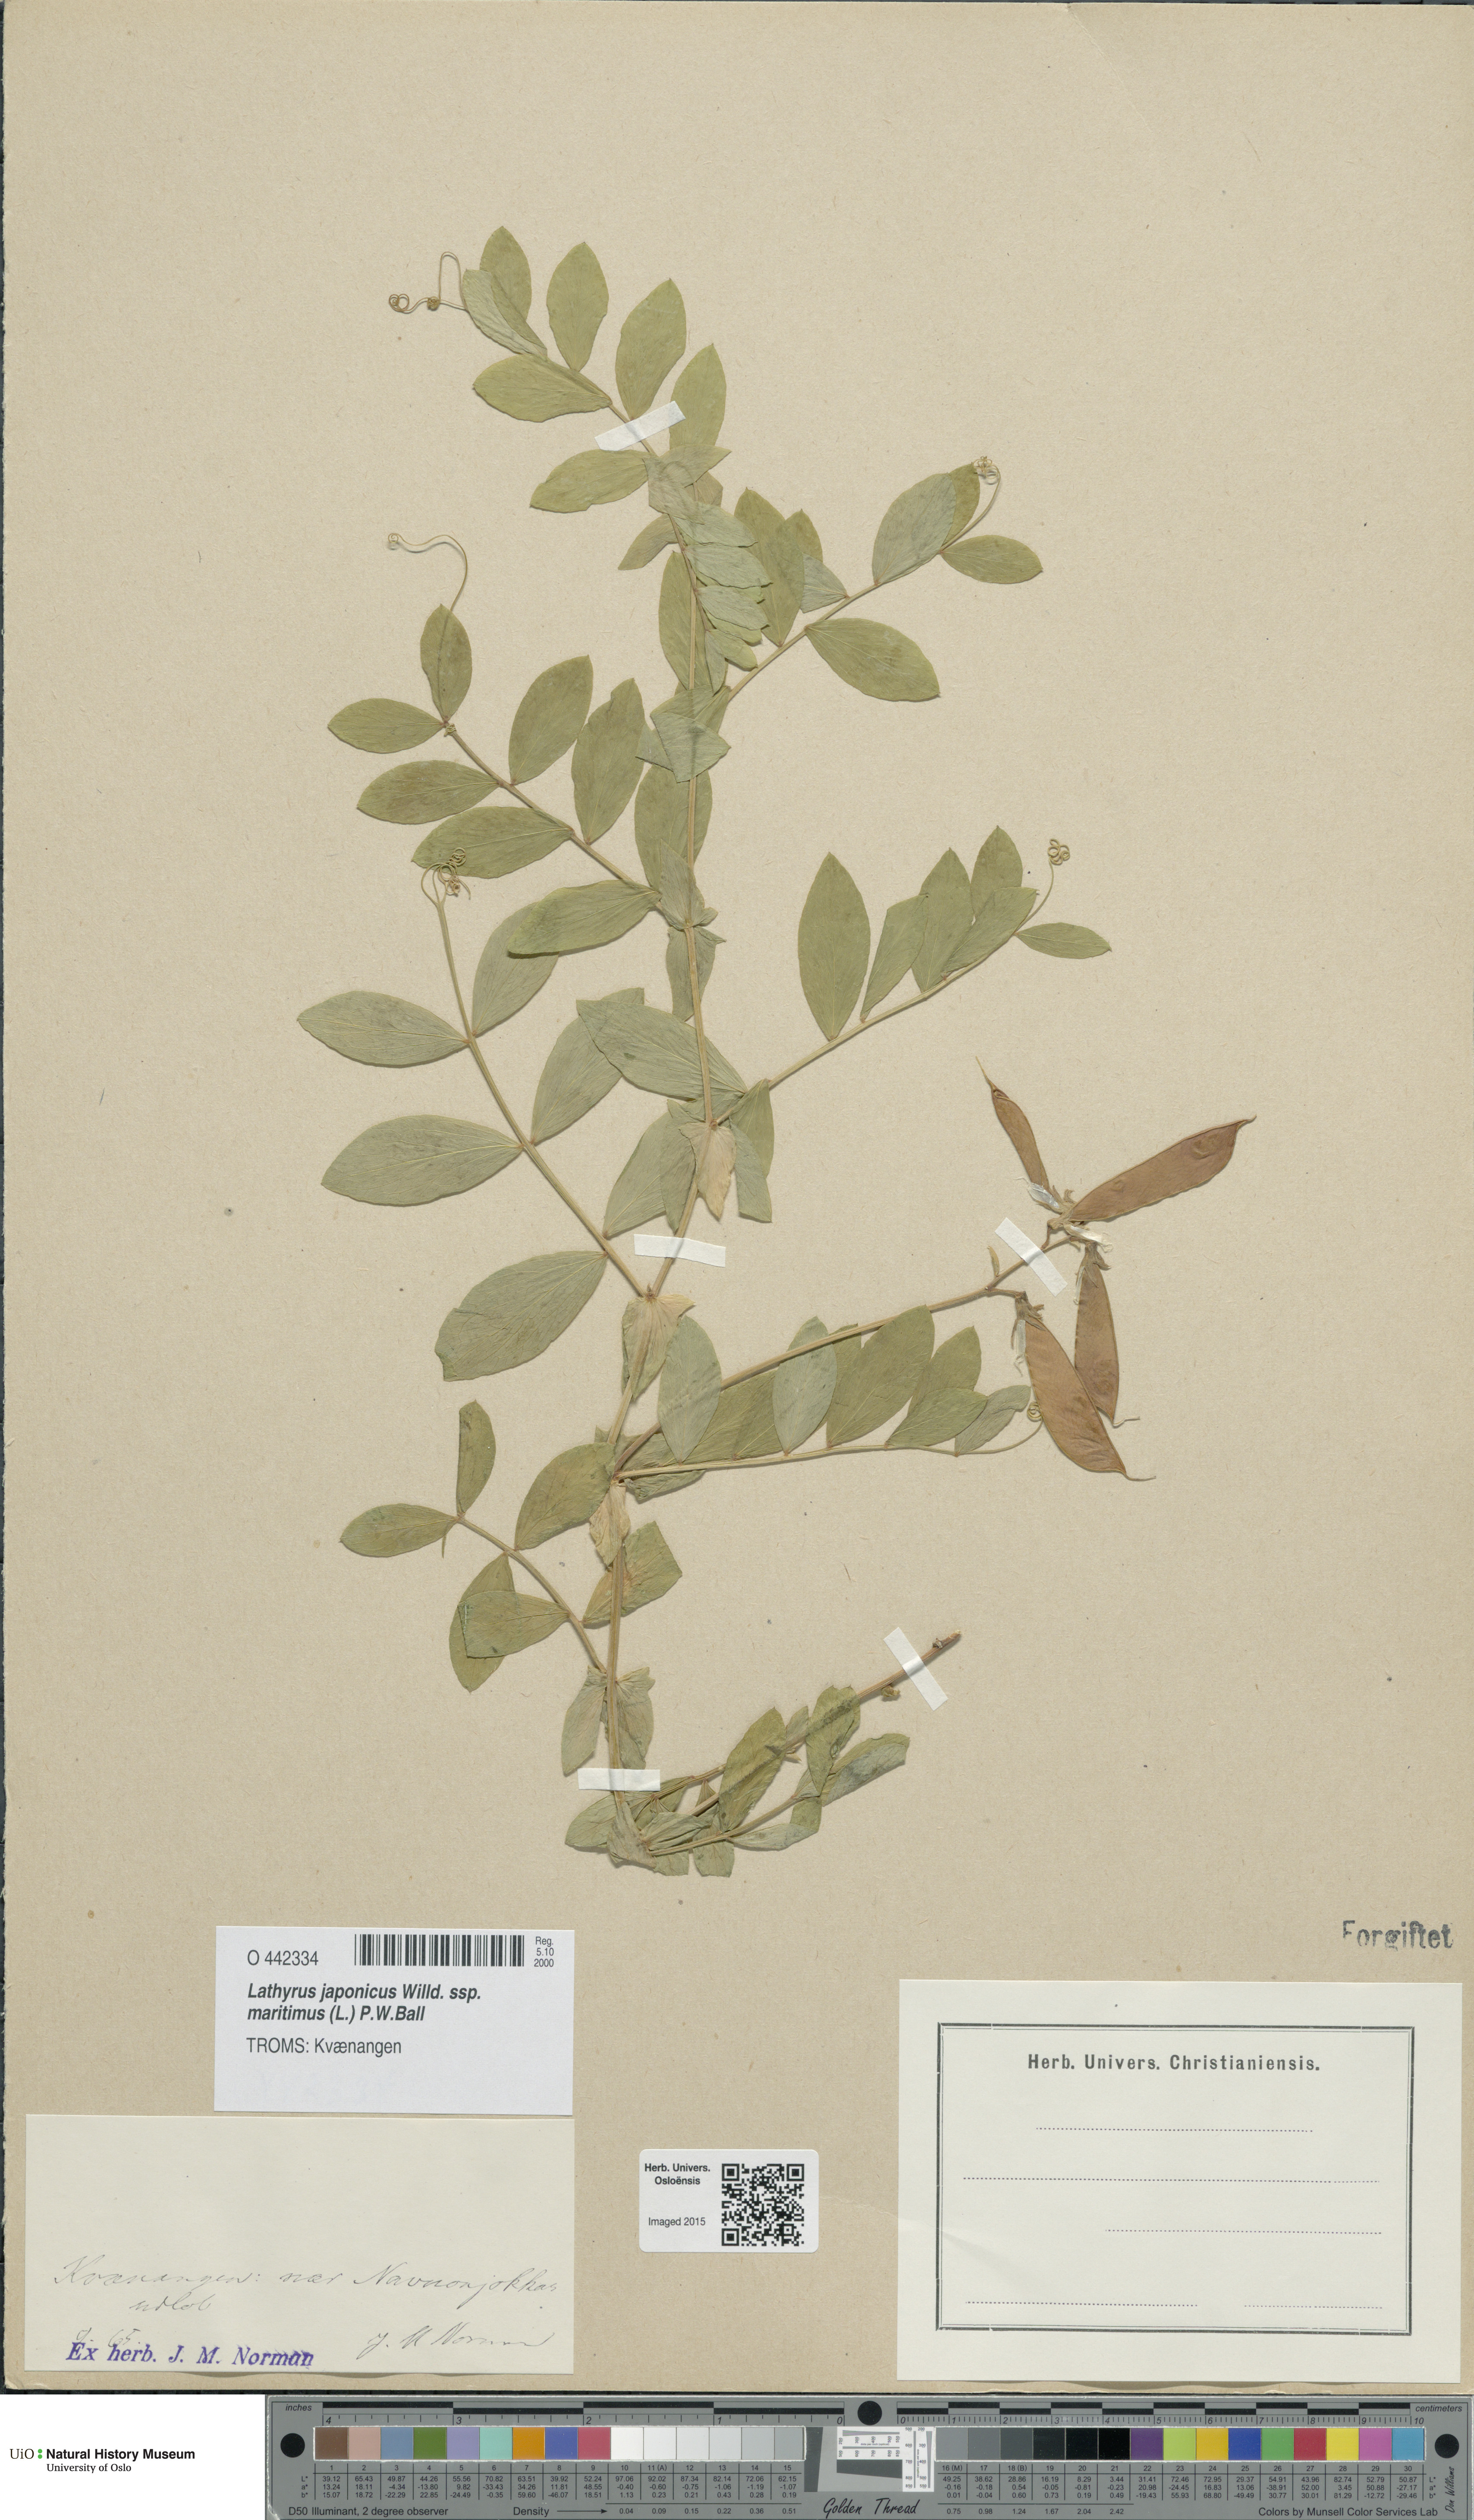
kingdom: Plantae
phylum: Tracheophyta
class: Magnoliopsida
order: Fabales
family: Fabaceae
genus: Lathyrus
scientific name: Lathyrus japonicus
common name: Sea pea
